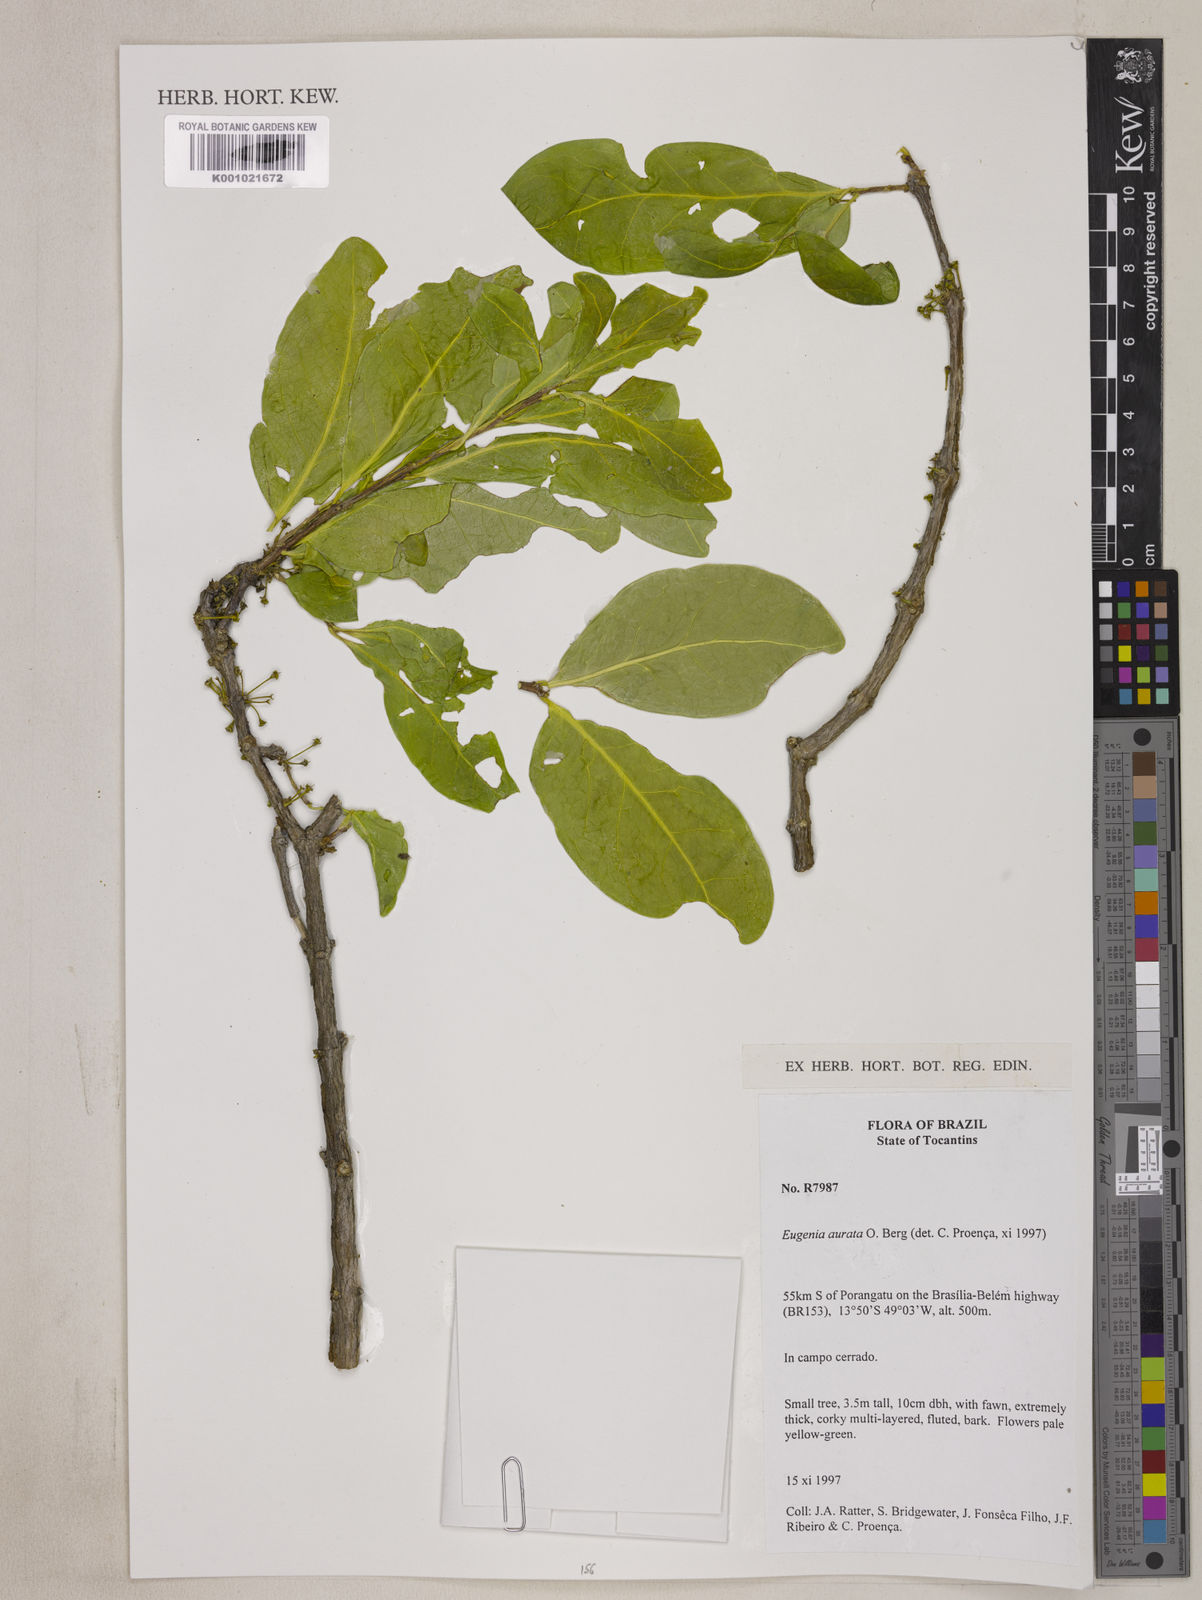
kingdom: Plantae
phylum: Tracheophyta
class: Magnoliopsida
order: Myrtales
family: Myrtaceae
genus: Eugenia
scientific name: Eugenia aurata
